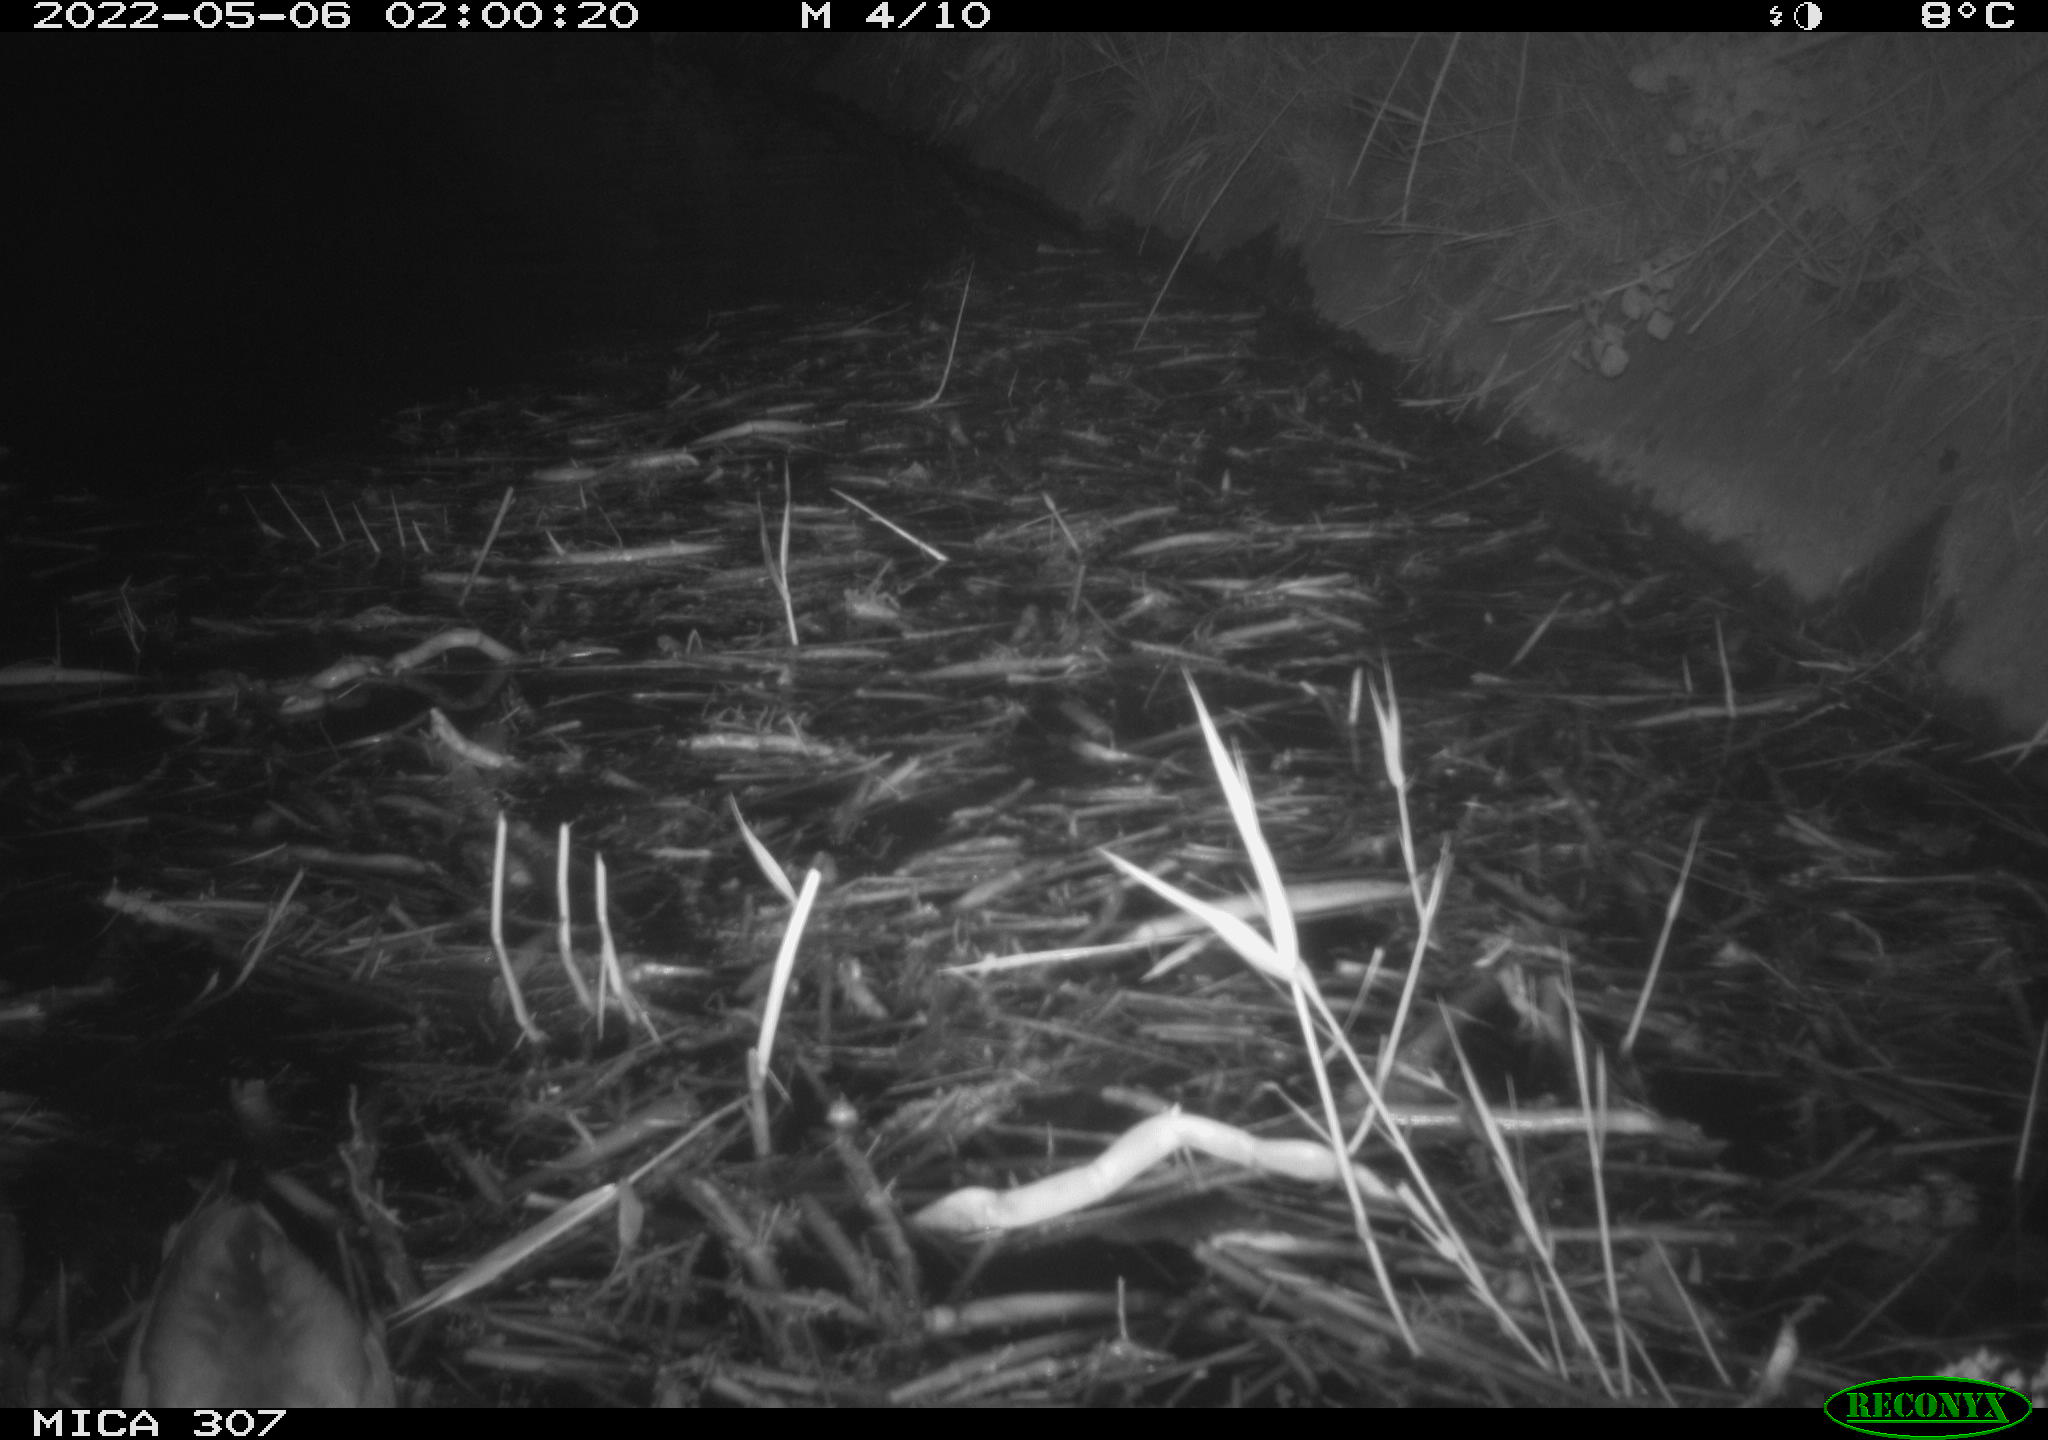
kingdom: Animalia
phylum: Chordata
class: Aves
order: Anseriformes
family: Anatidae
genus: Anas
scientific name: Anas platyrhynchos
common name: Mallard
